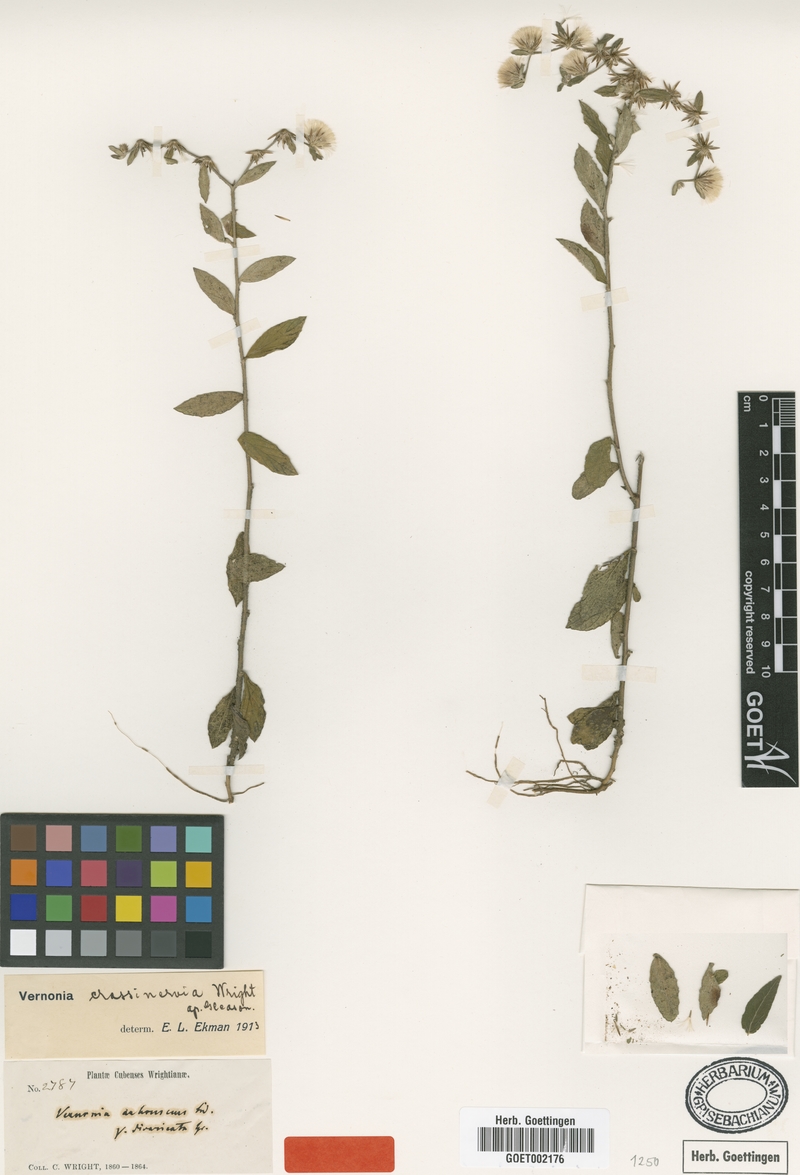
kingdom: Plantae
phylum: Tracheophyta
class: Magnoliopsida
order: Asterales
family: Asteraceae
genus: Lepidaploa
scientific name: Lepidaploa gnaphaliifolia
